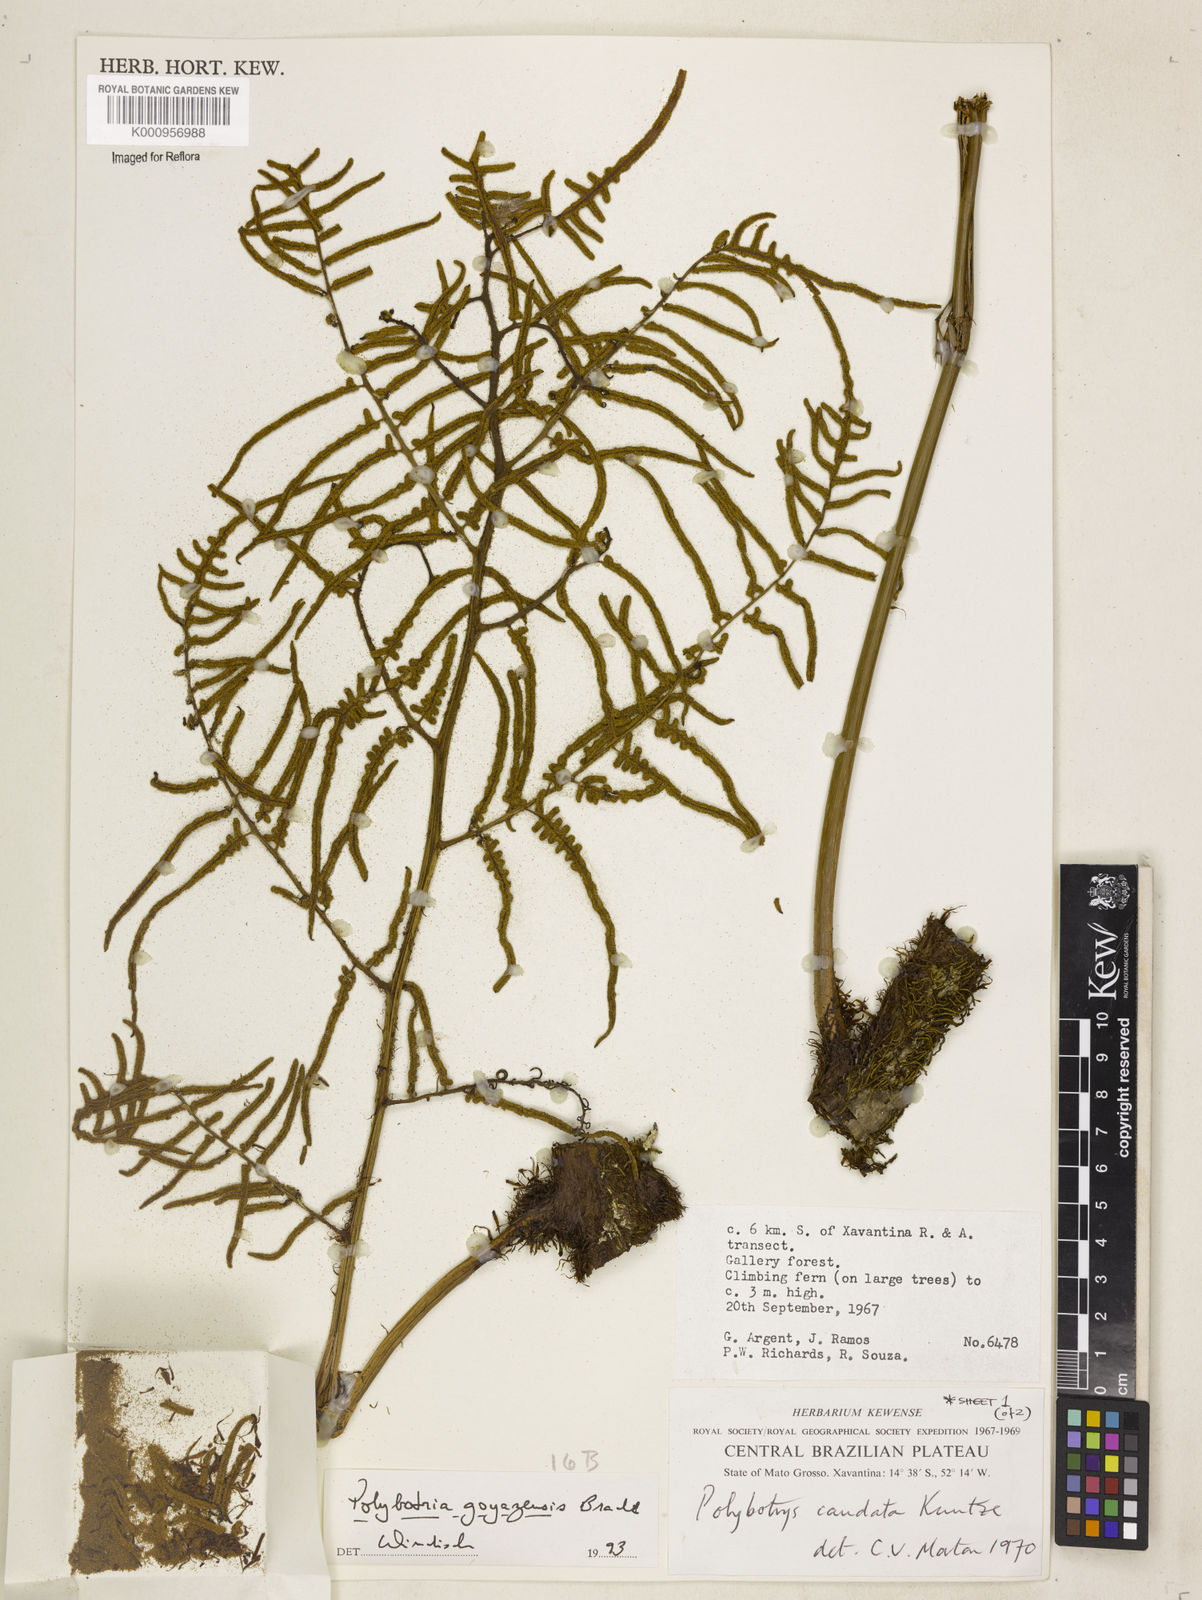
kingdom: Plantae
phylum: Tracheophyta
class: Polypodiopsida
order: Polypodiales
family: Dryopteridaceae
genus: Polybotrya
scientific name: Polybotrya goyazensis
